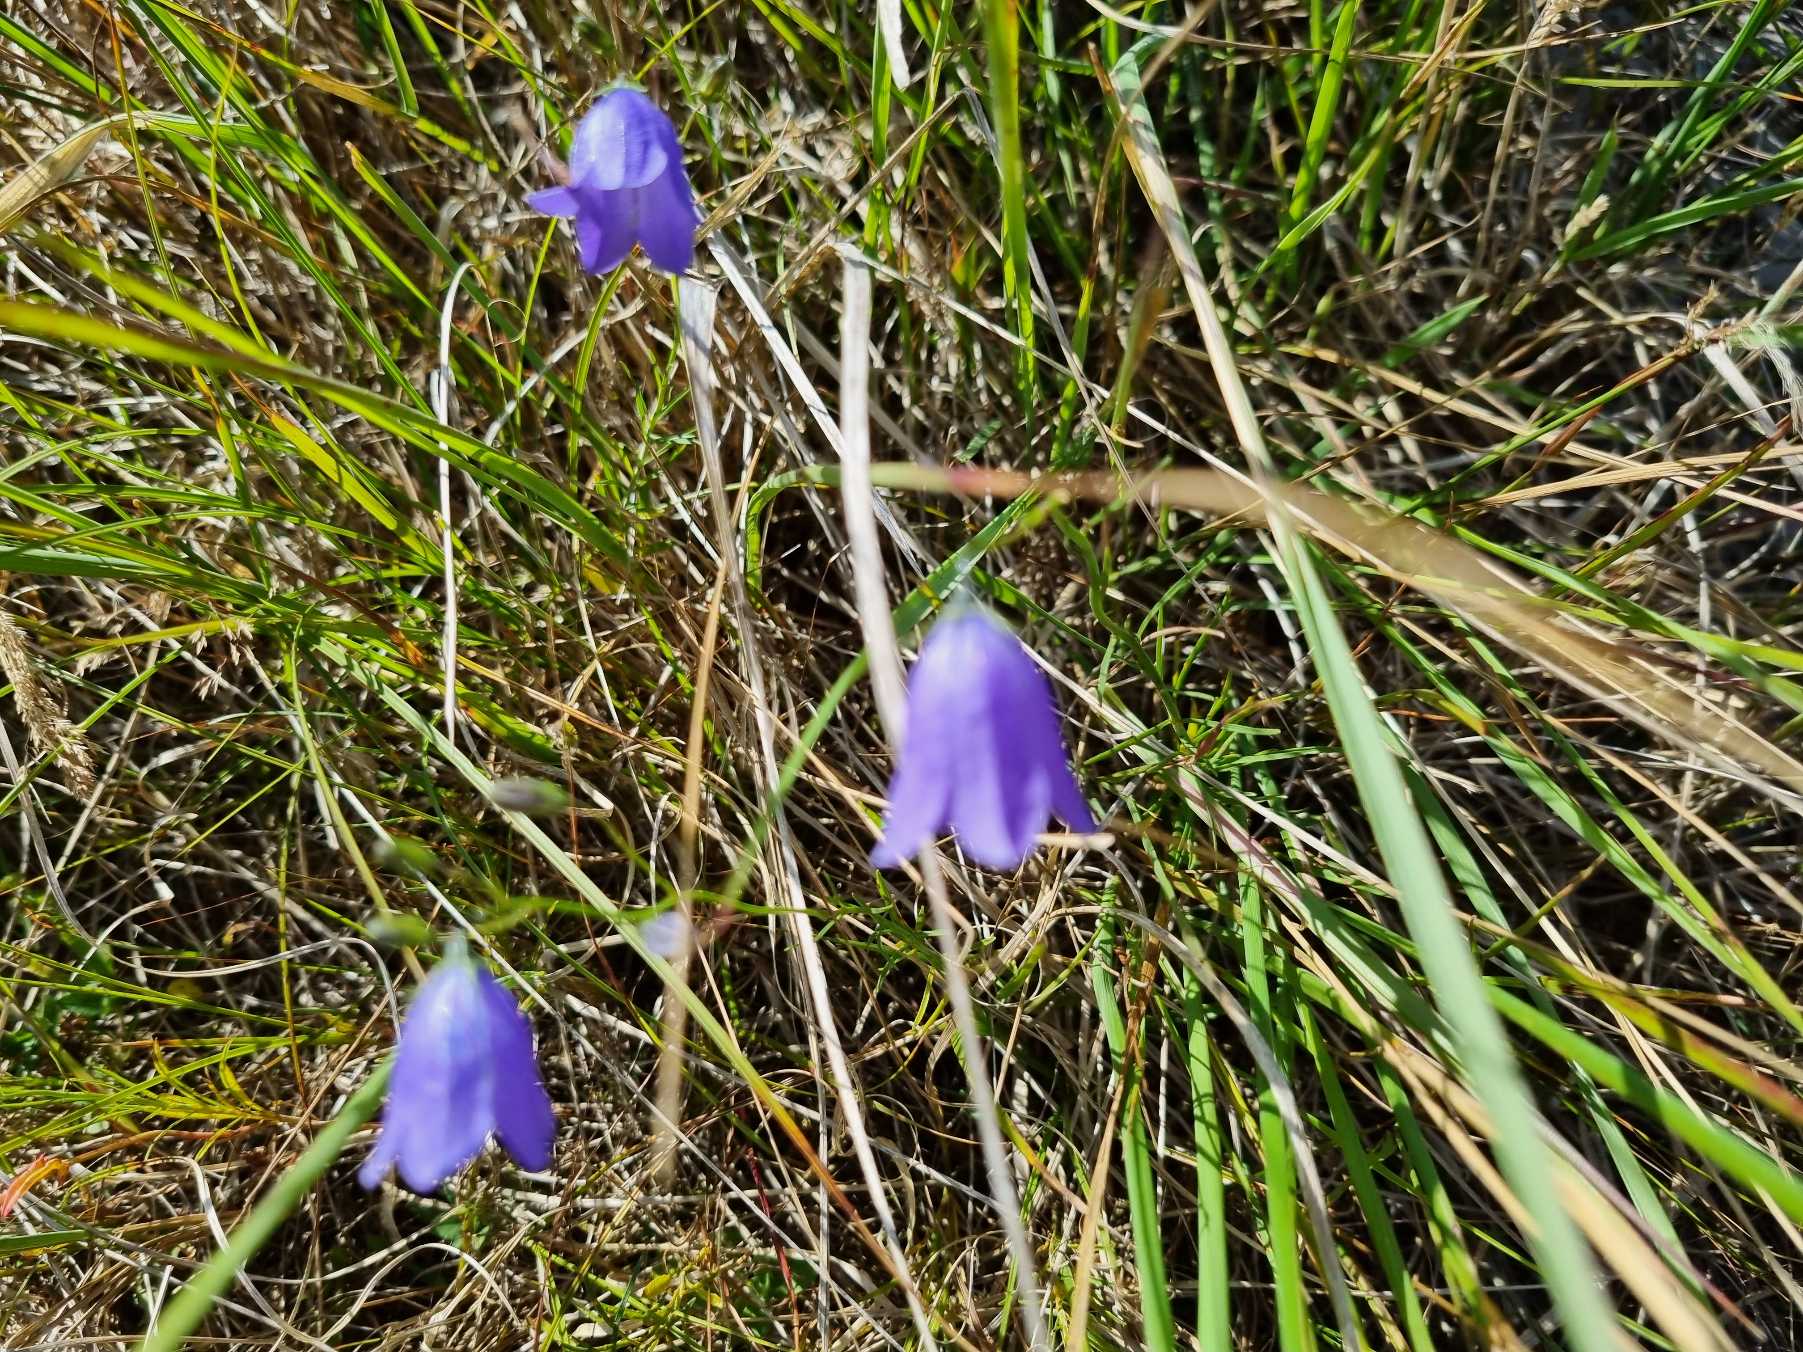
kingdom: Plantae
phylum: Tracheophyta
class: Magnoliopsida
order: Asterales
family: Campanulaceae
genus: Campanula
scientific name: Campanula rotundifolia
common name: Liden klokke
